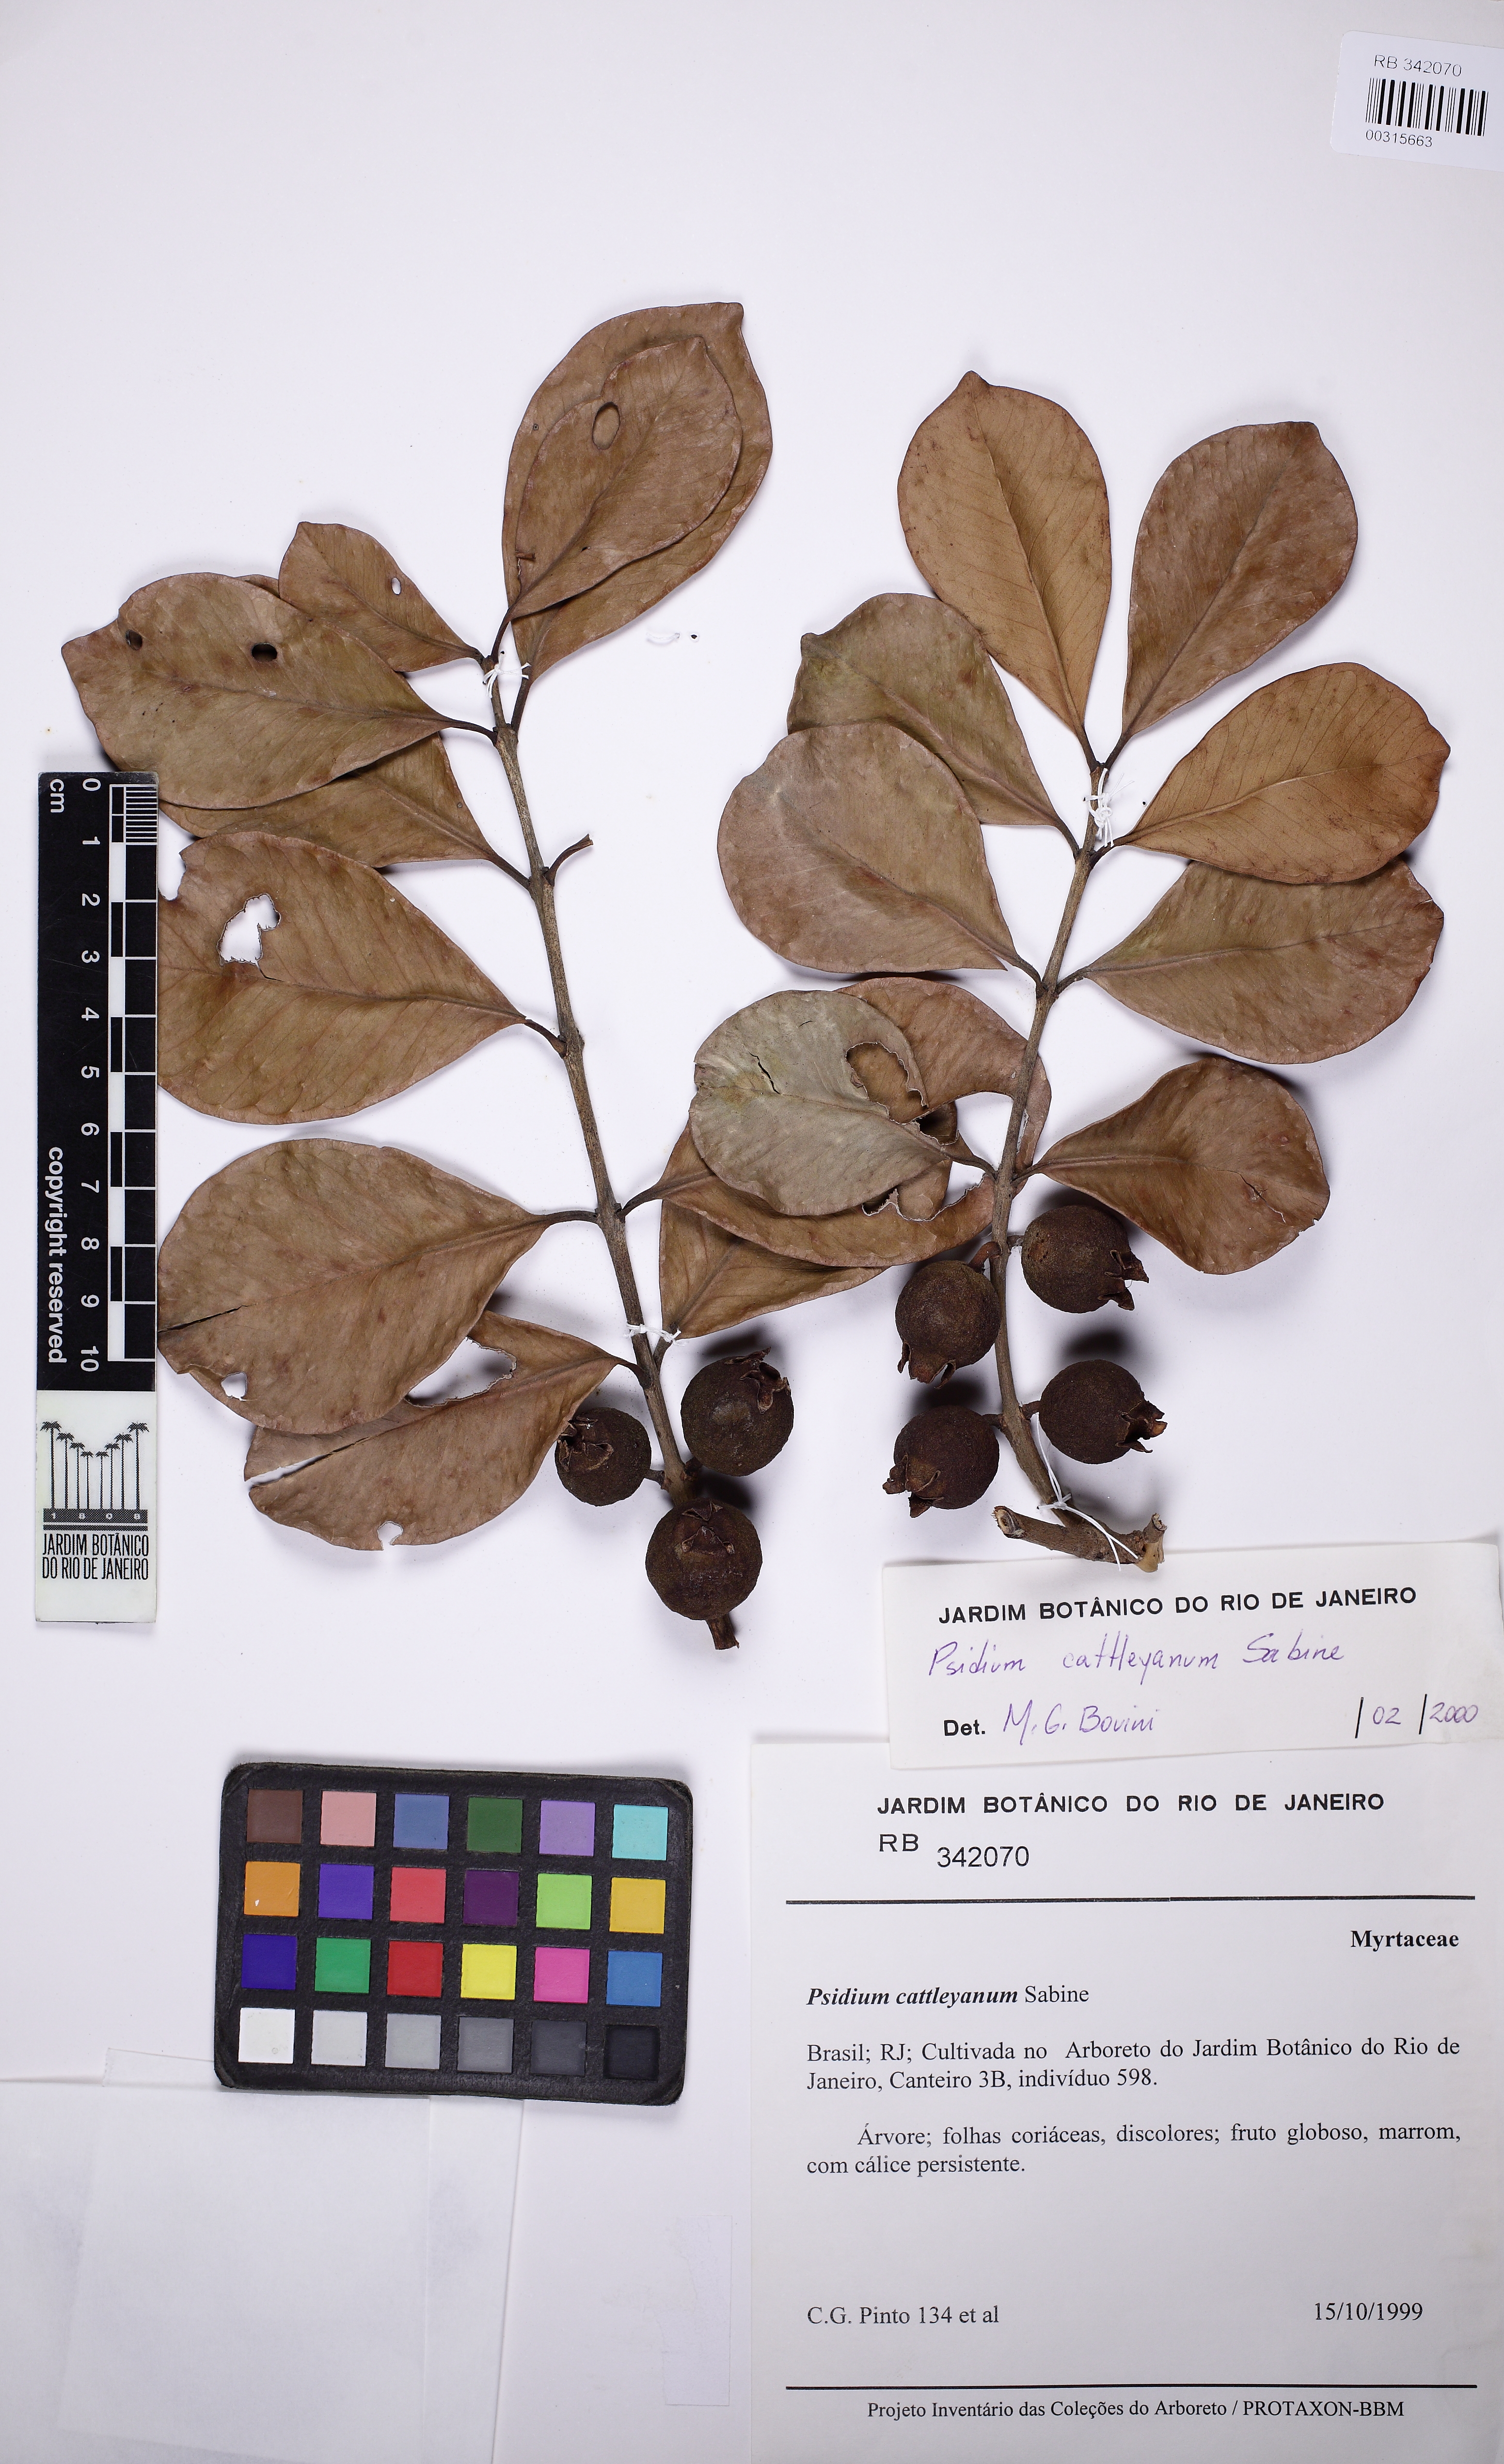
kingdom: Plantae
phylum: Tracheophyta
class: Magnoliopsida
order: Myrtales
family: Myrtaceae
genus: Psidium
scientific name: Psidium cattleianum
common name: Strawberry guava
